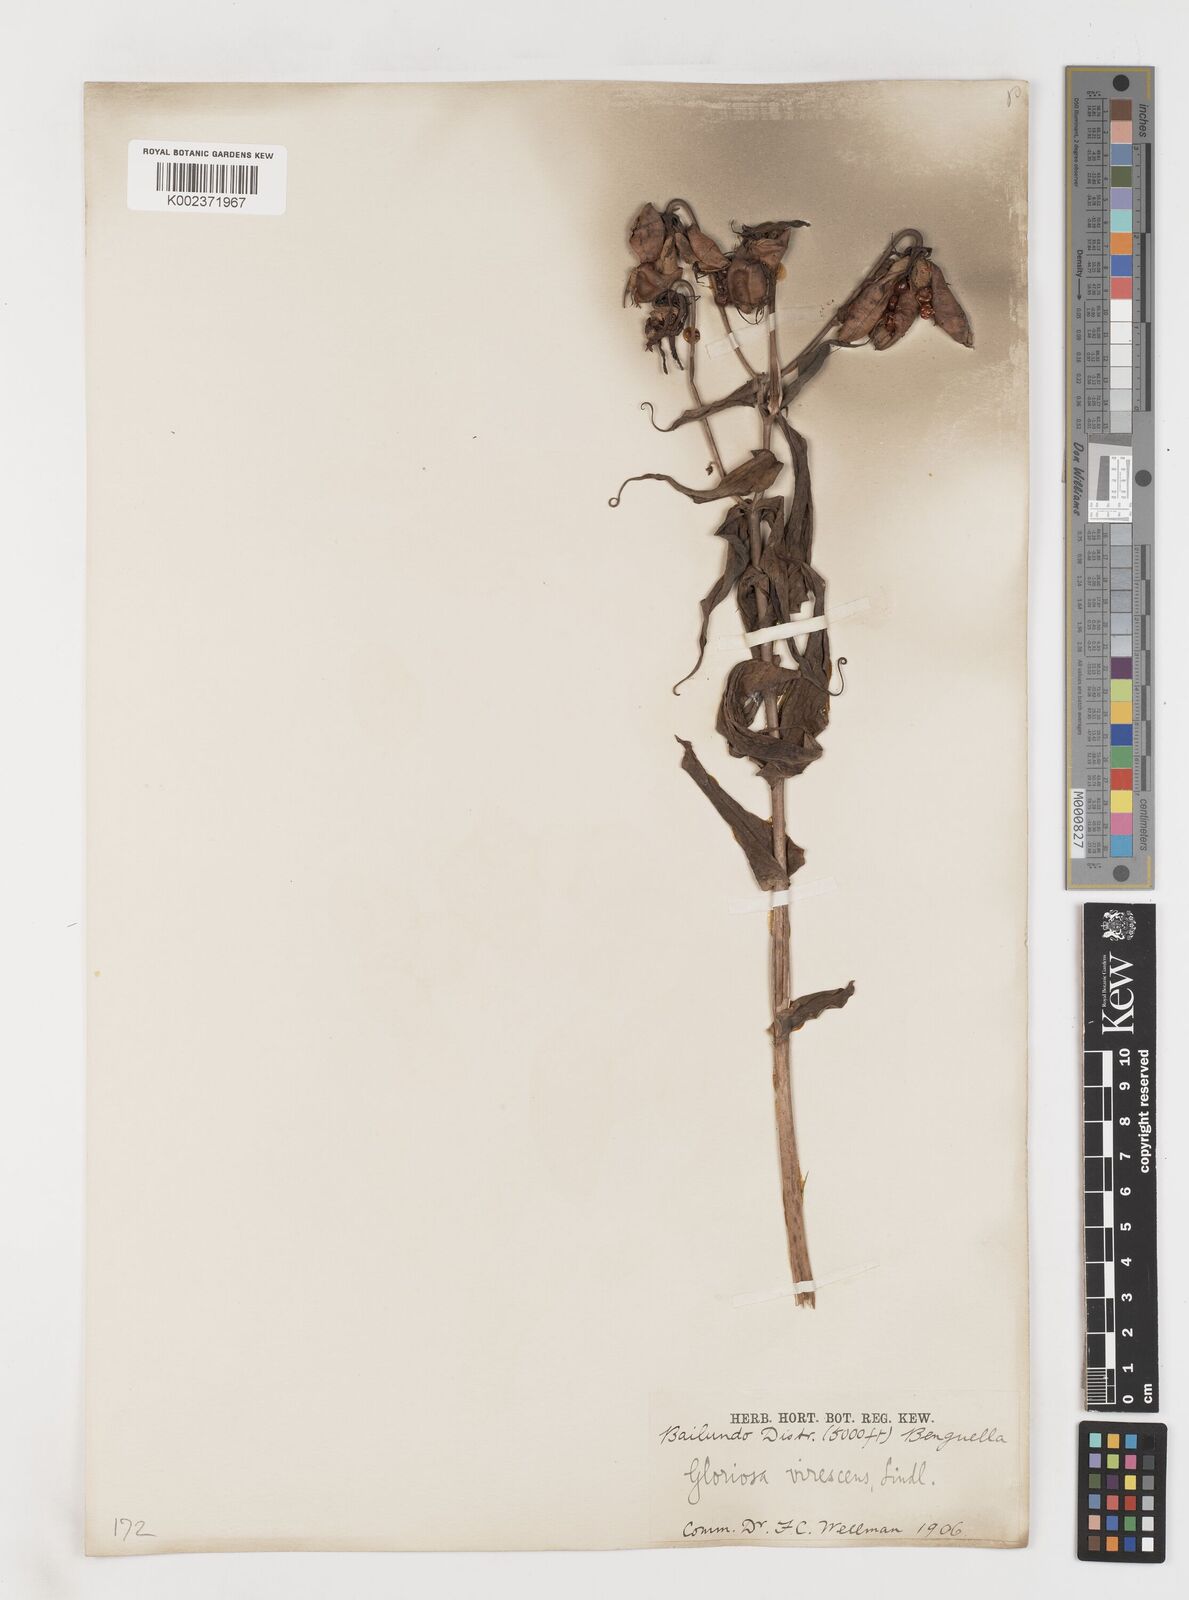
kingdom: Plantae
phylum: Tracheophyta
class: Liliopsida
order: Liliales
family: Colchicaceae
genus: Gloriosa
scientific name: Gloriosa simplex
